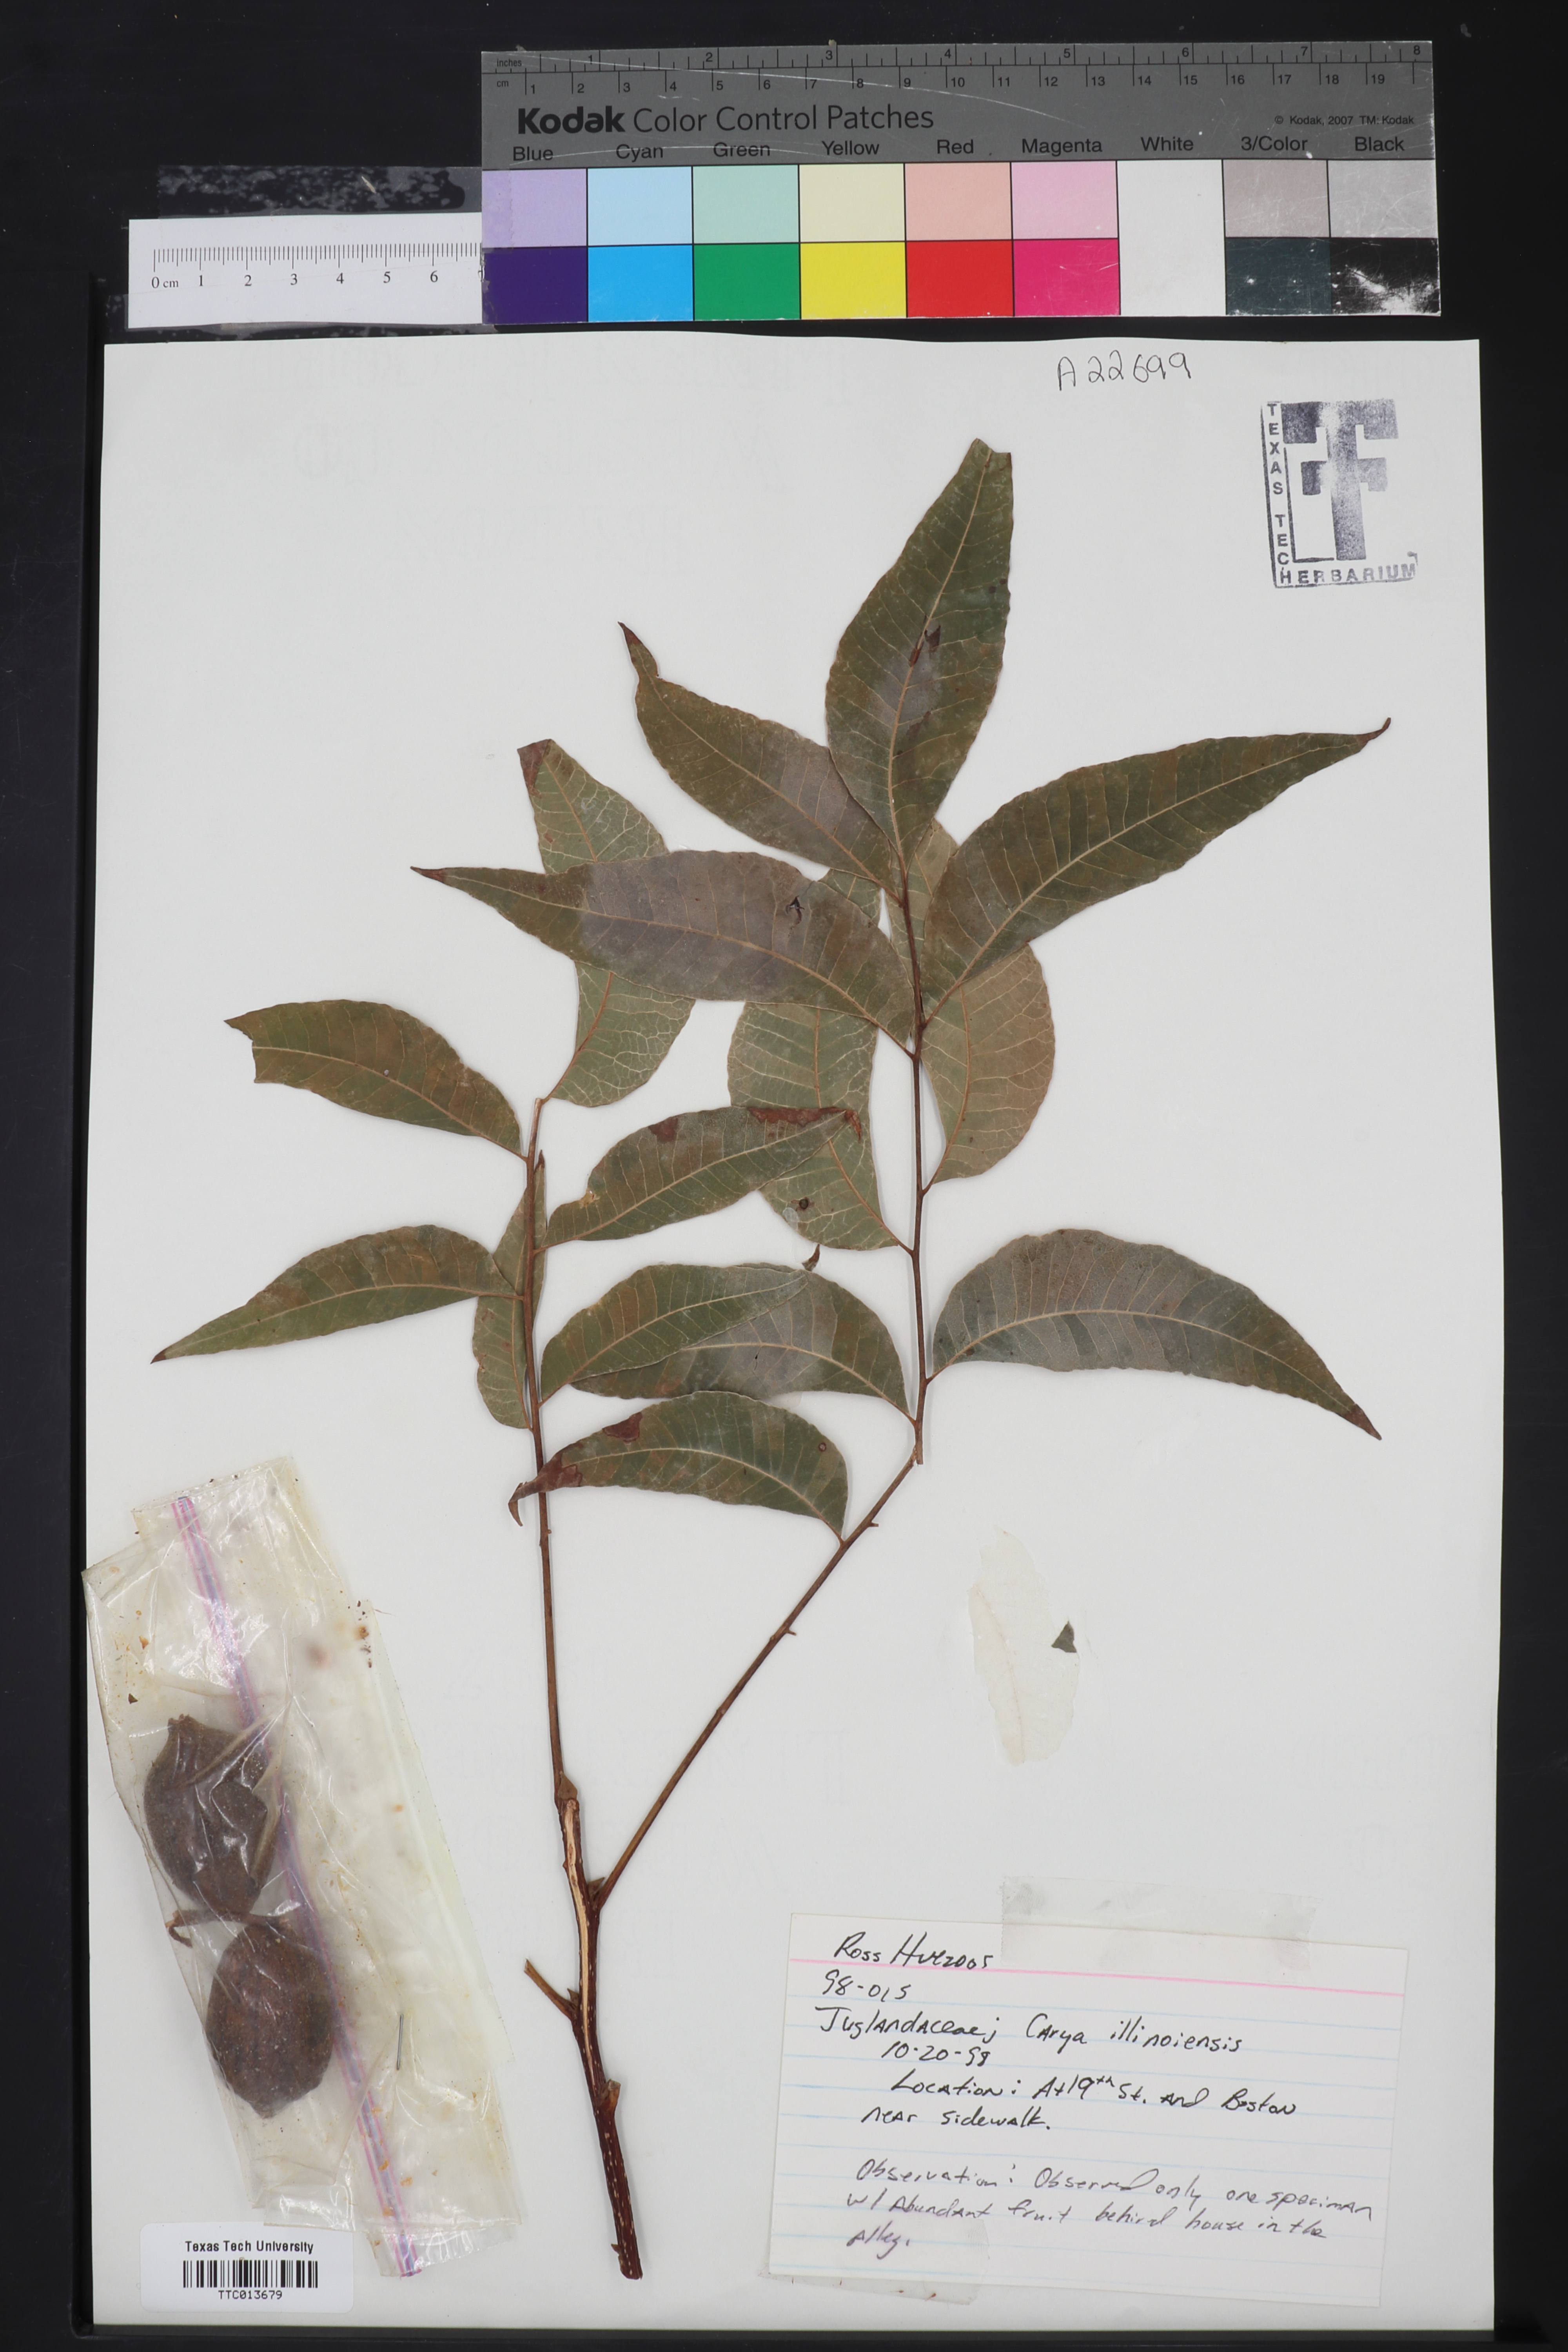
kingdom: Plantae
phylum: Tracheophyta
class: Magnoliopsida
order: Fagales
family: Juglandaceae
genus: Carya
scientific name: Carya
